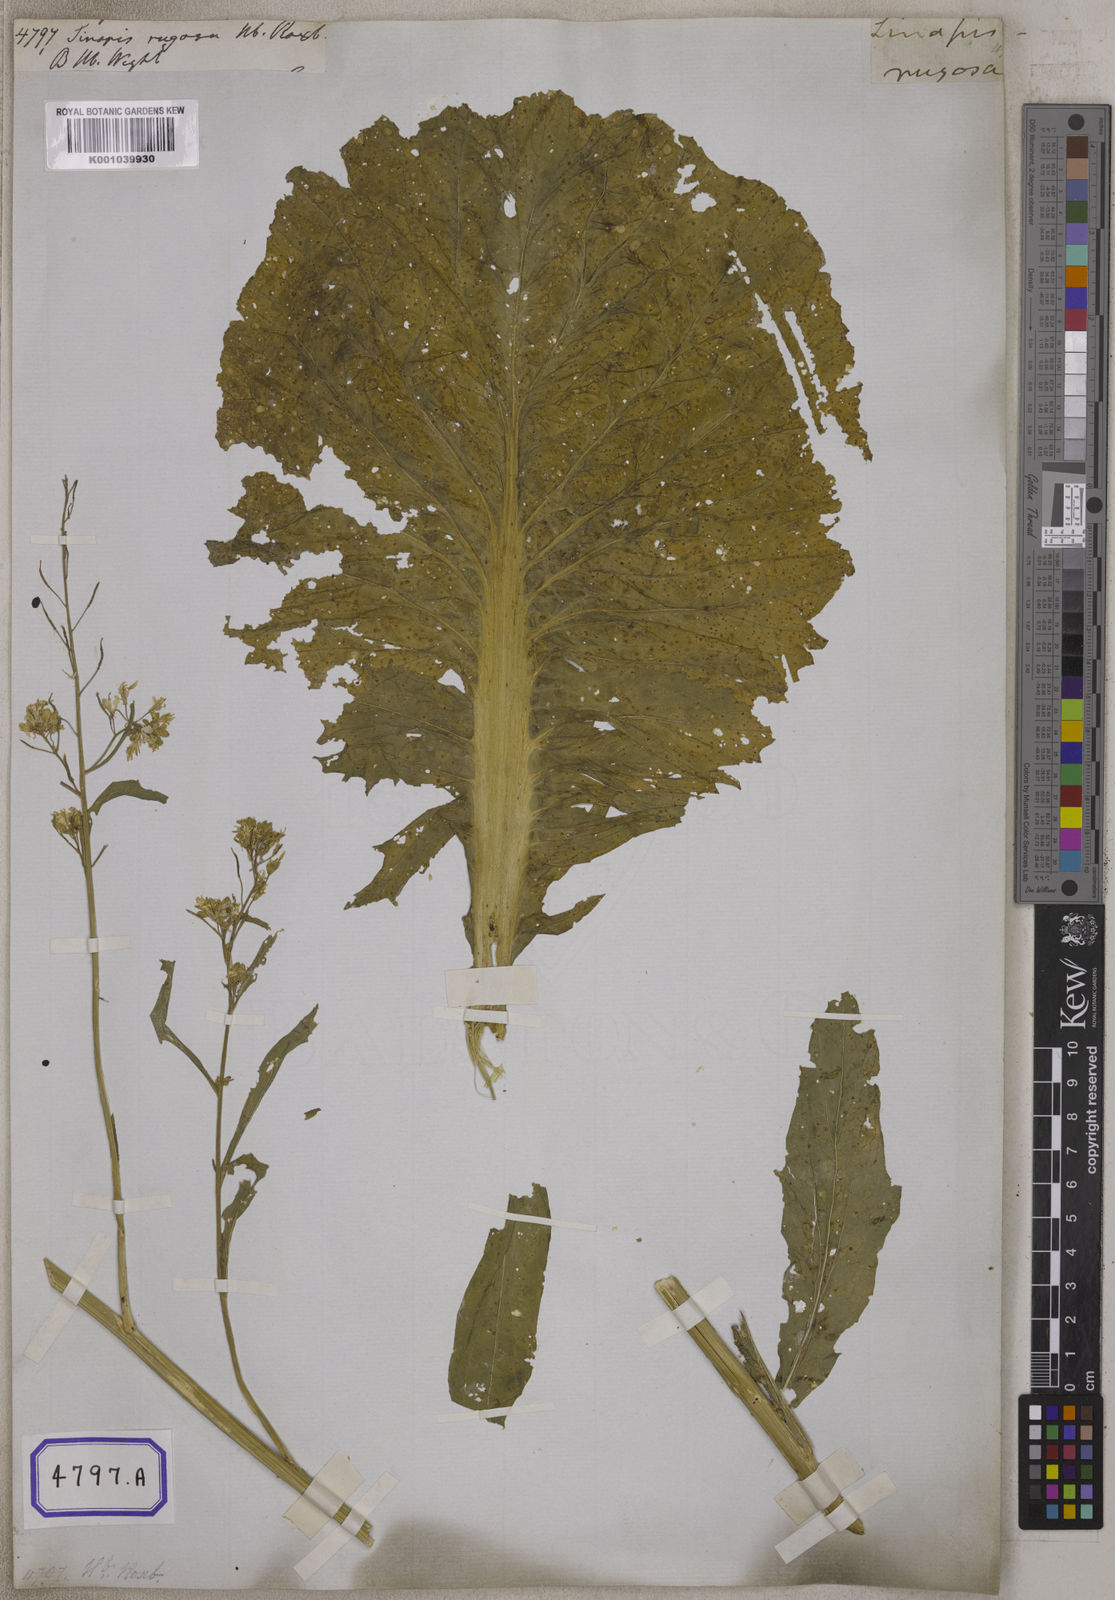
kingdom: Plantae
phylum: Tracheophyta
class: Magnoliopsida
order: Brassicales
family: Brassicaceae
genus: Brassica
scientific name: Brassica juncea
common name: Brown mustard
